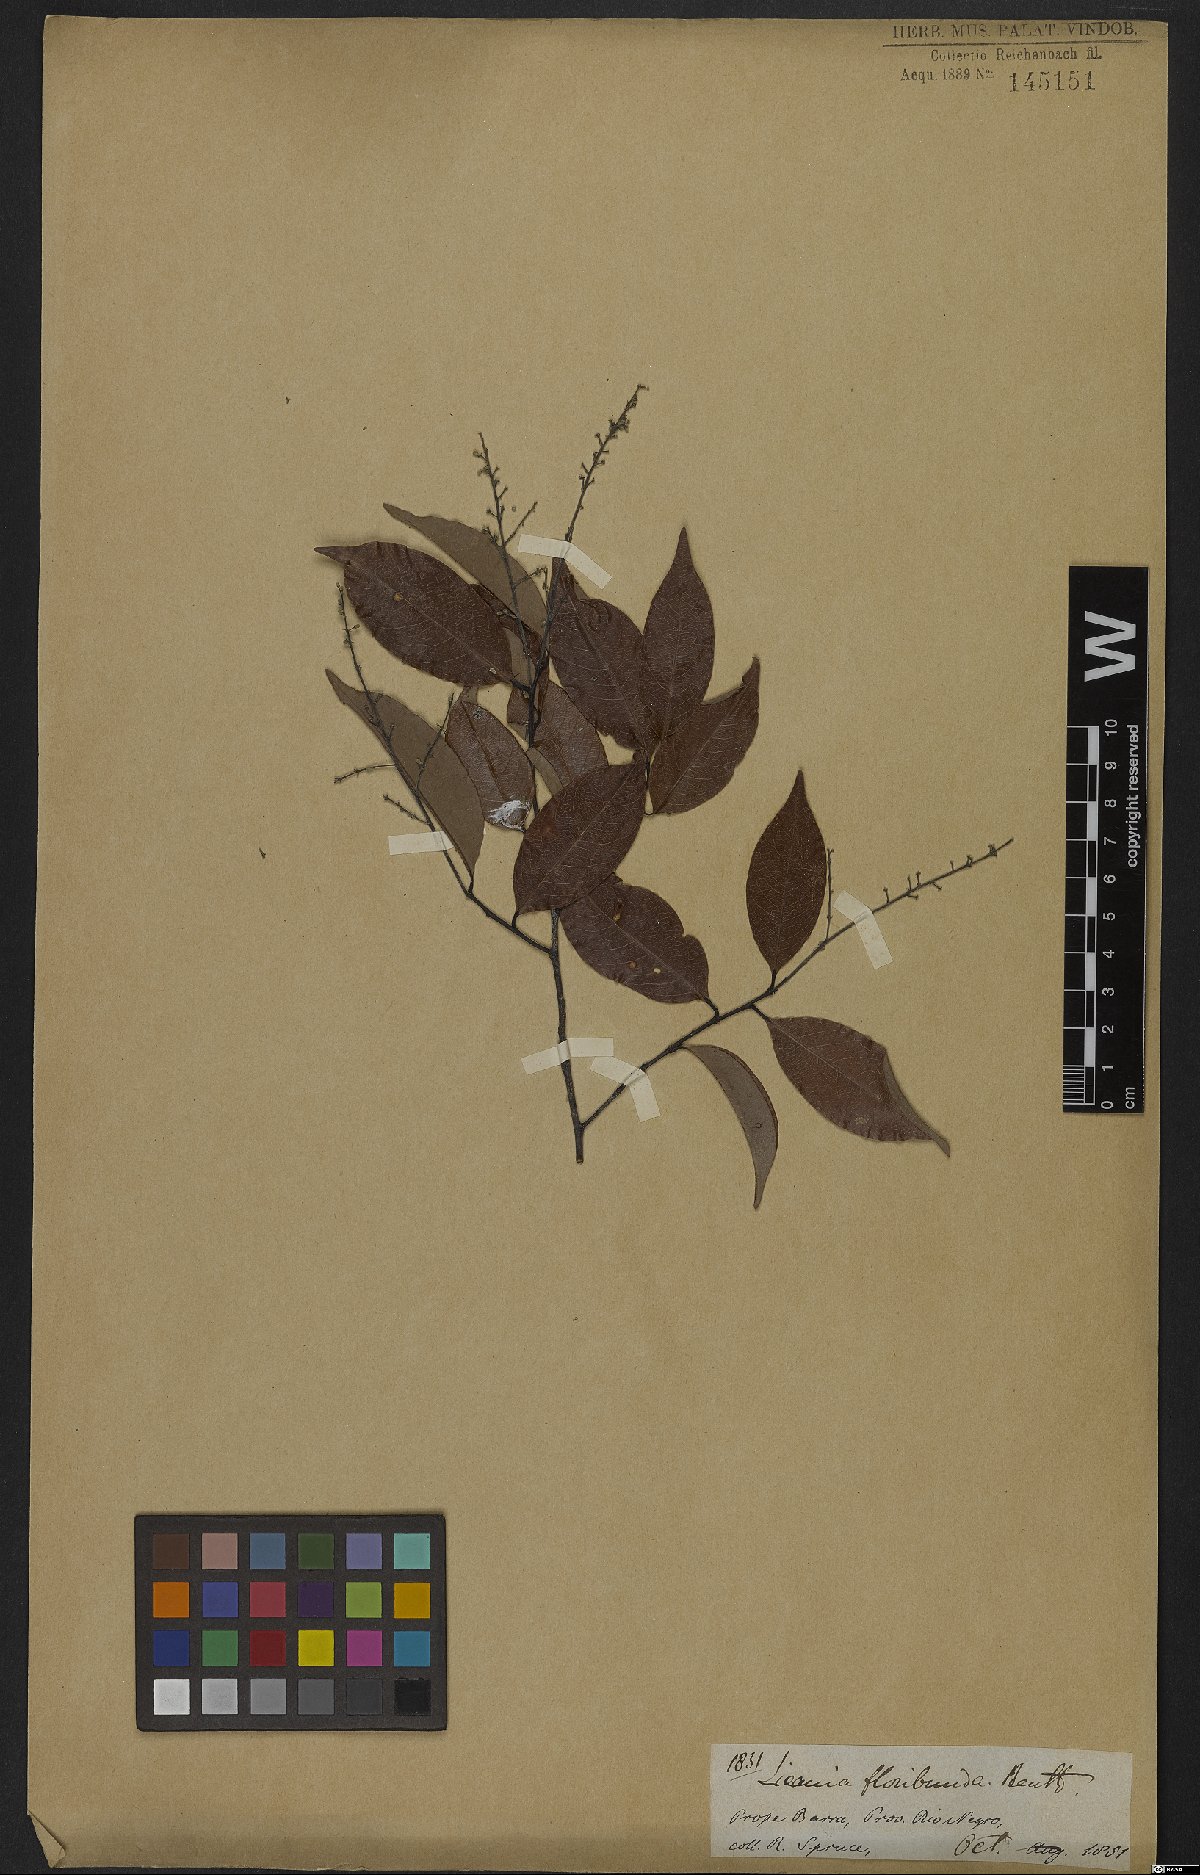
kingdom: Plantae
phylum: Tracheophyta
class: Magnoliopsida
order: Malpighiales
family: Chrysobalanaceae
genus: Leptobalanus
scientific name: Leptobalanus apetalus
